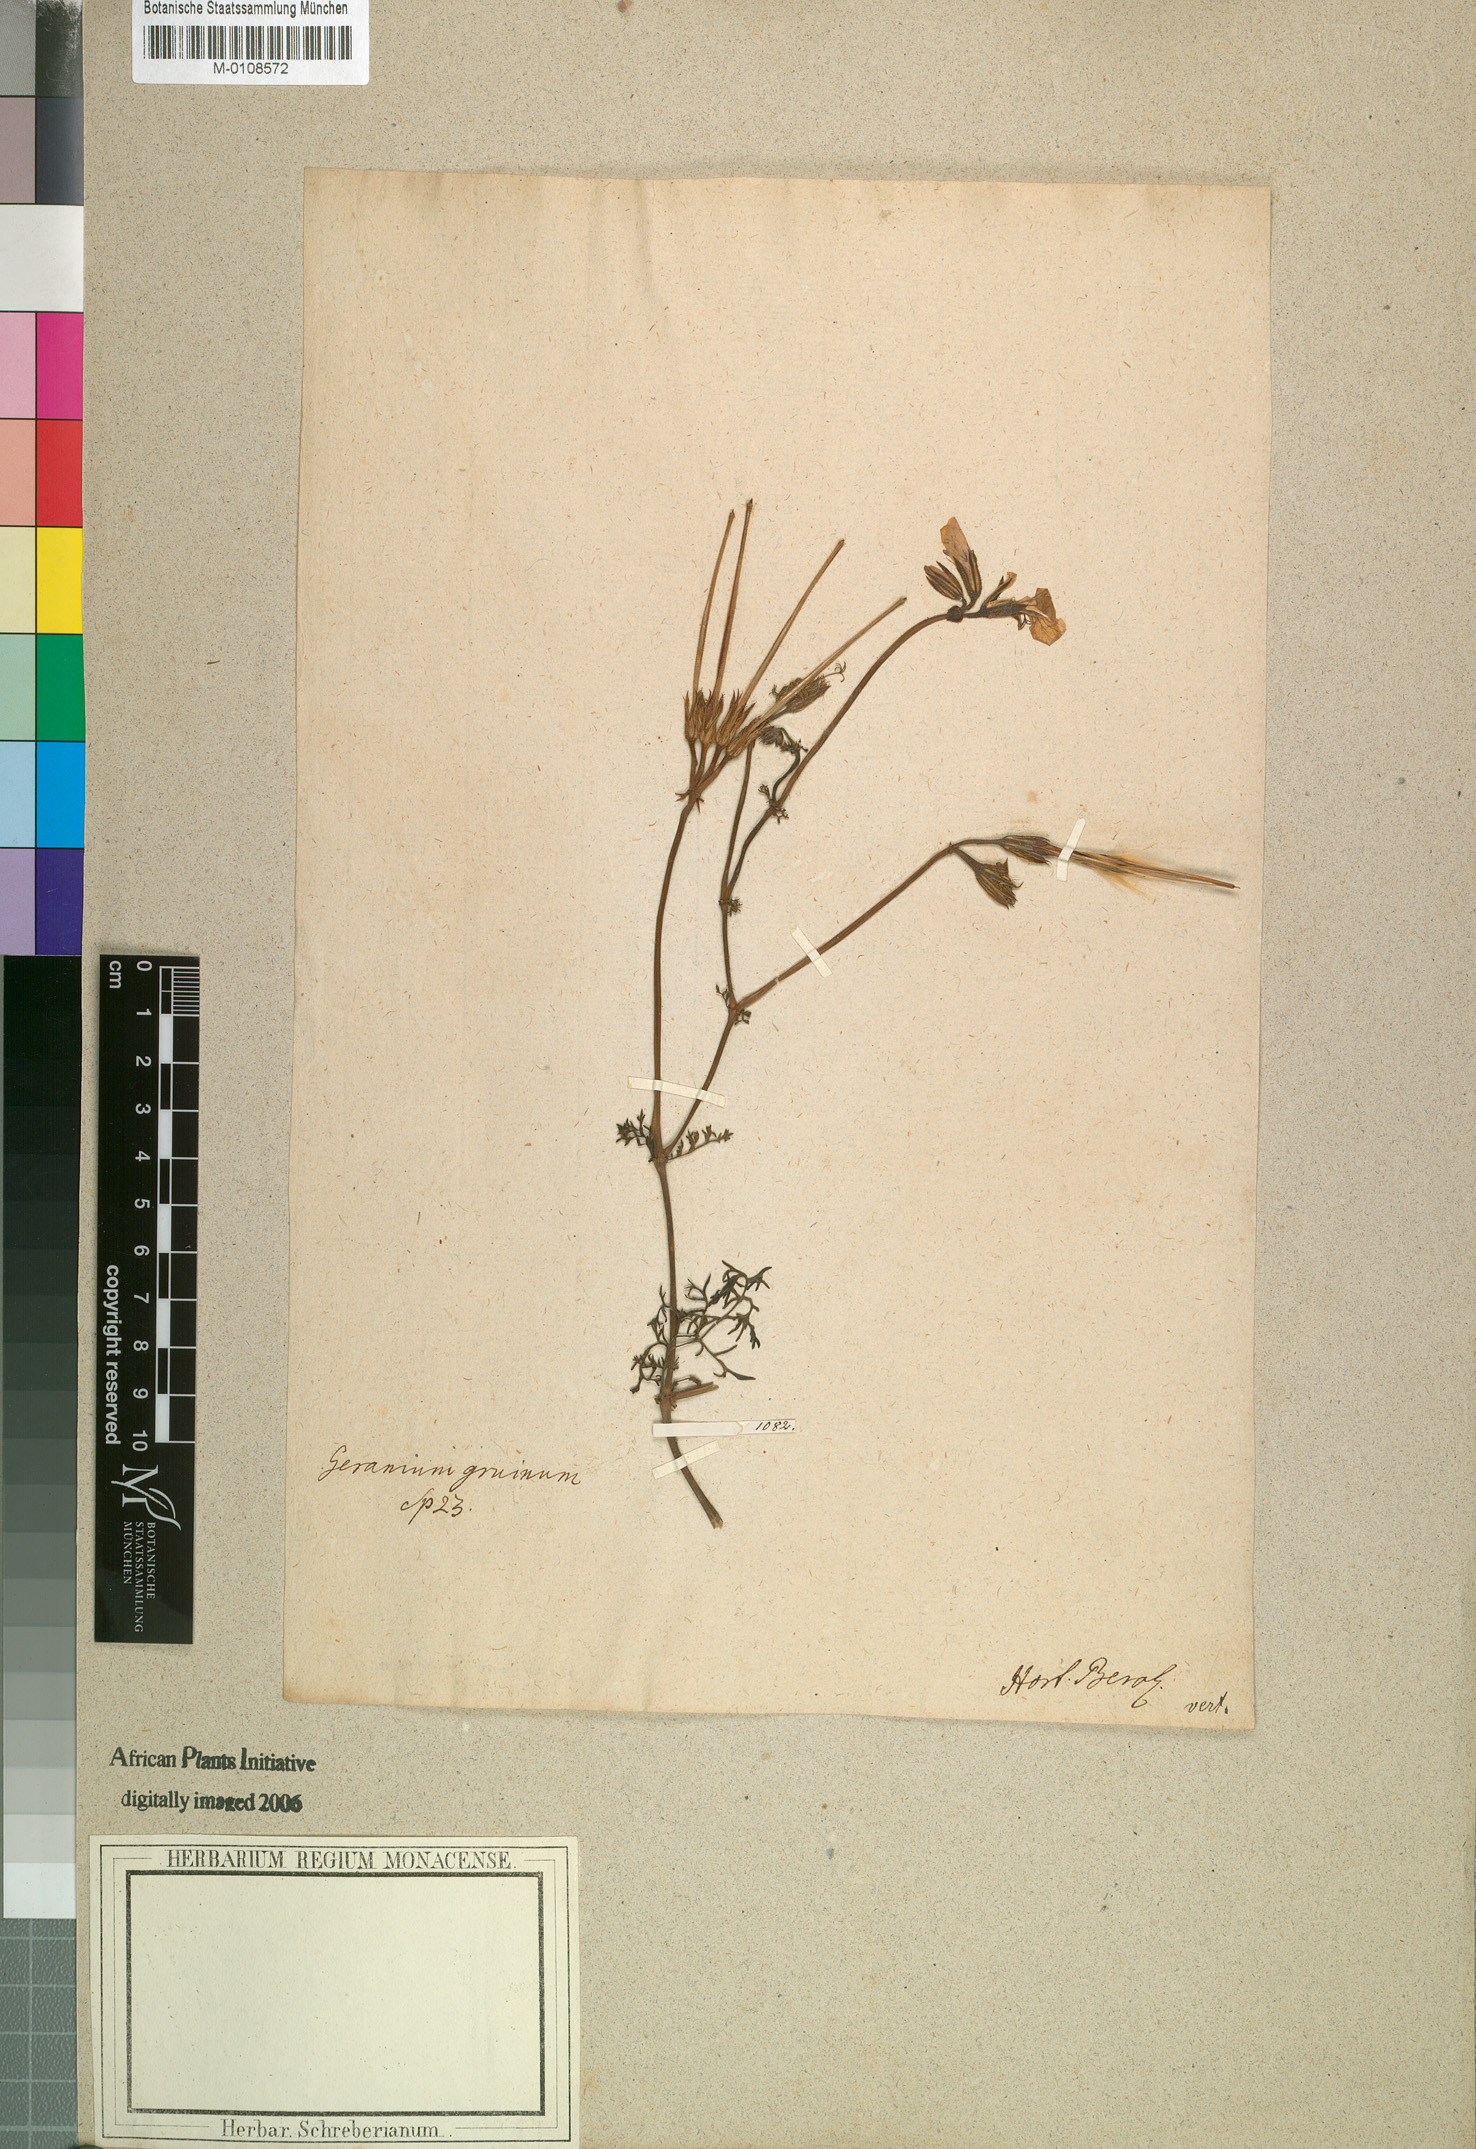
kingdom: Plantae
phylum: Tracheophyta
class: Magnoliopsida
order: Geraniales
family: Geraniaceae
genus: Pelargonium
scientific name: Pelargonium myrrhifolium
